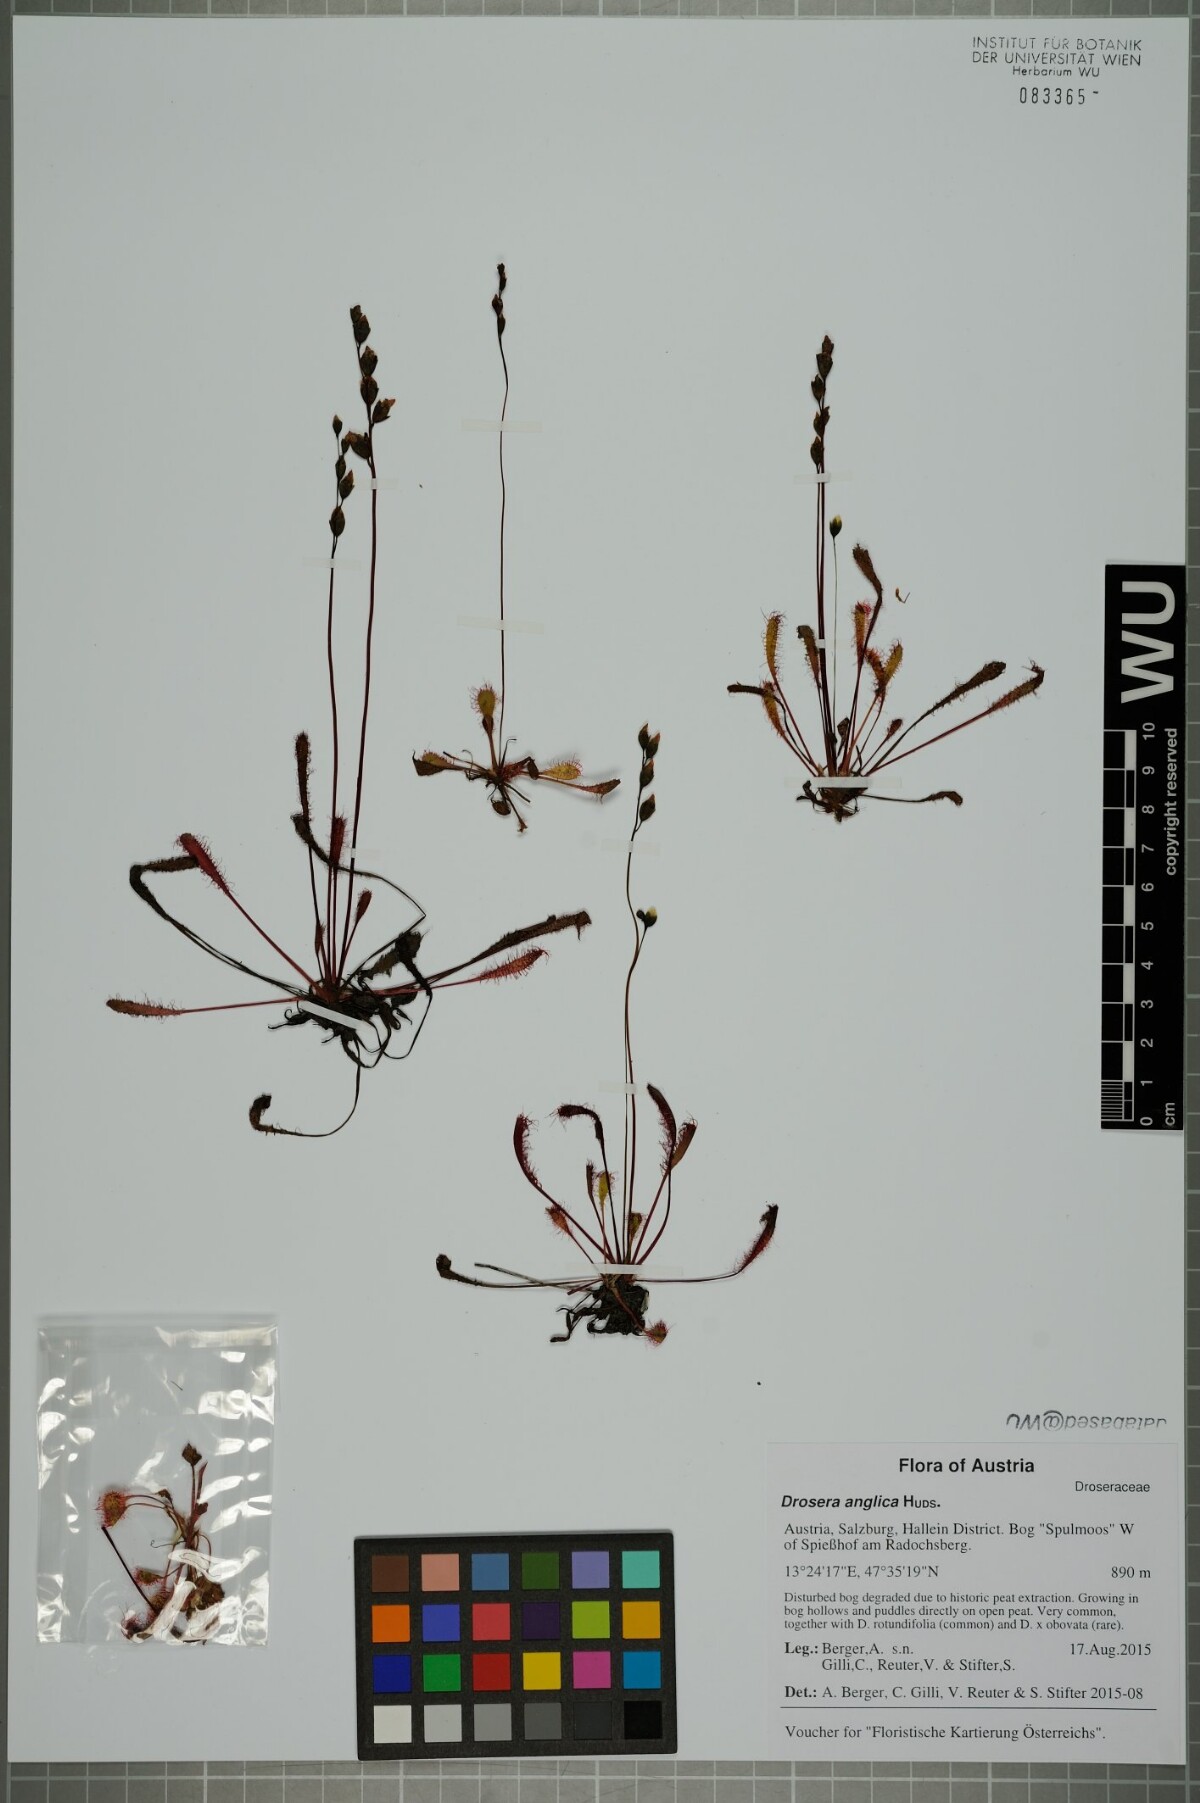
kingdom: Plantae
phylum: Tracheophyta
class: Magnoliopsida
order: Caryophyllales
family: Droseraceae
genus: Drosera
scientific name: Drosera anglica
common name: Great sundew
